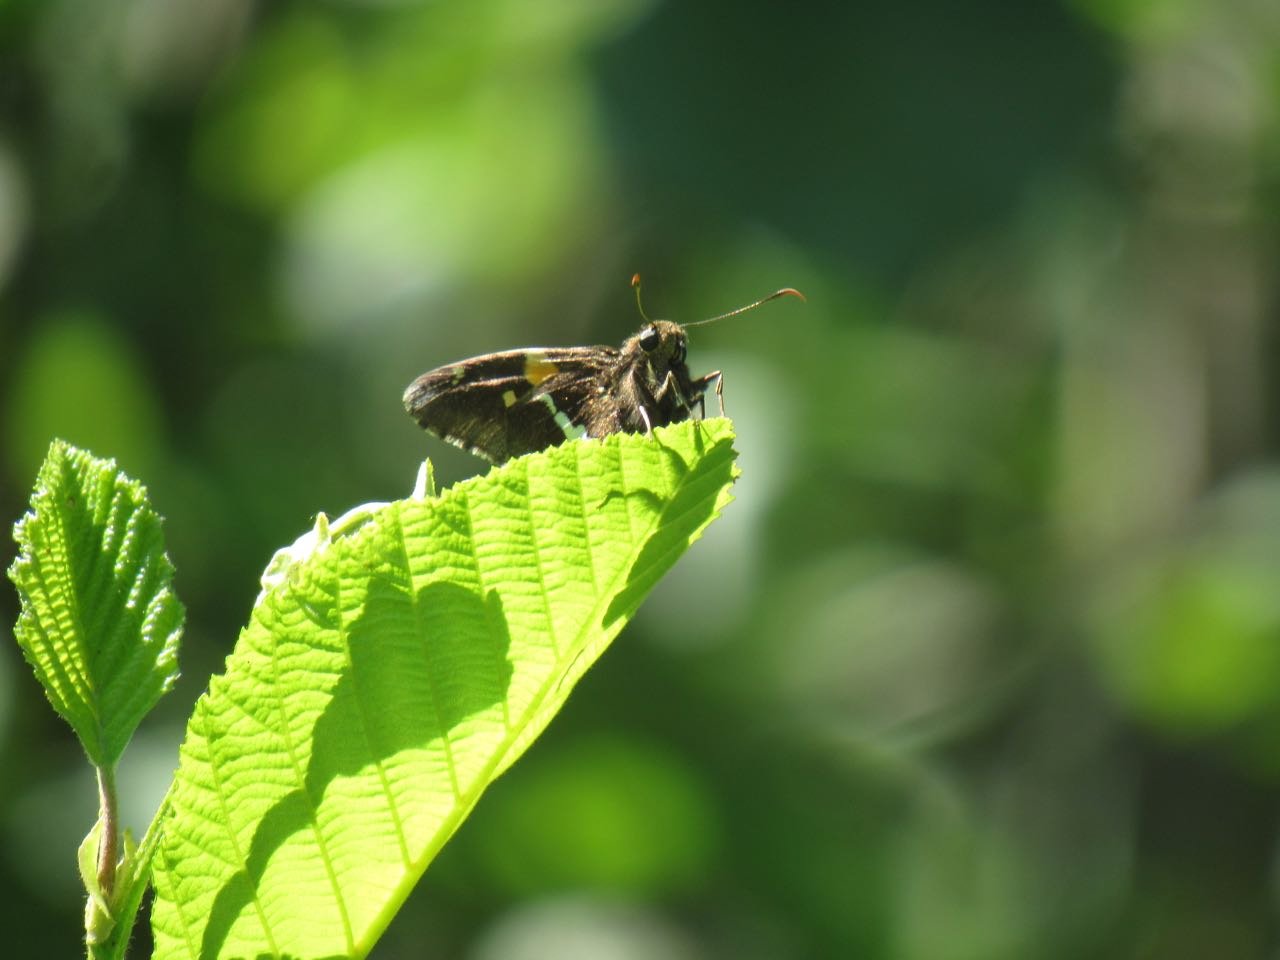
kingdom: Animalia
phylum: Arthropoda
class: Insecta
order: Lepidoptera
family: Hesperiidae
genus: Epargyreus
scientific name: Epargyreus clarus
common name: Silver-spotted Skipper
